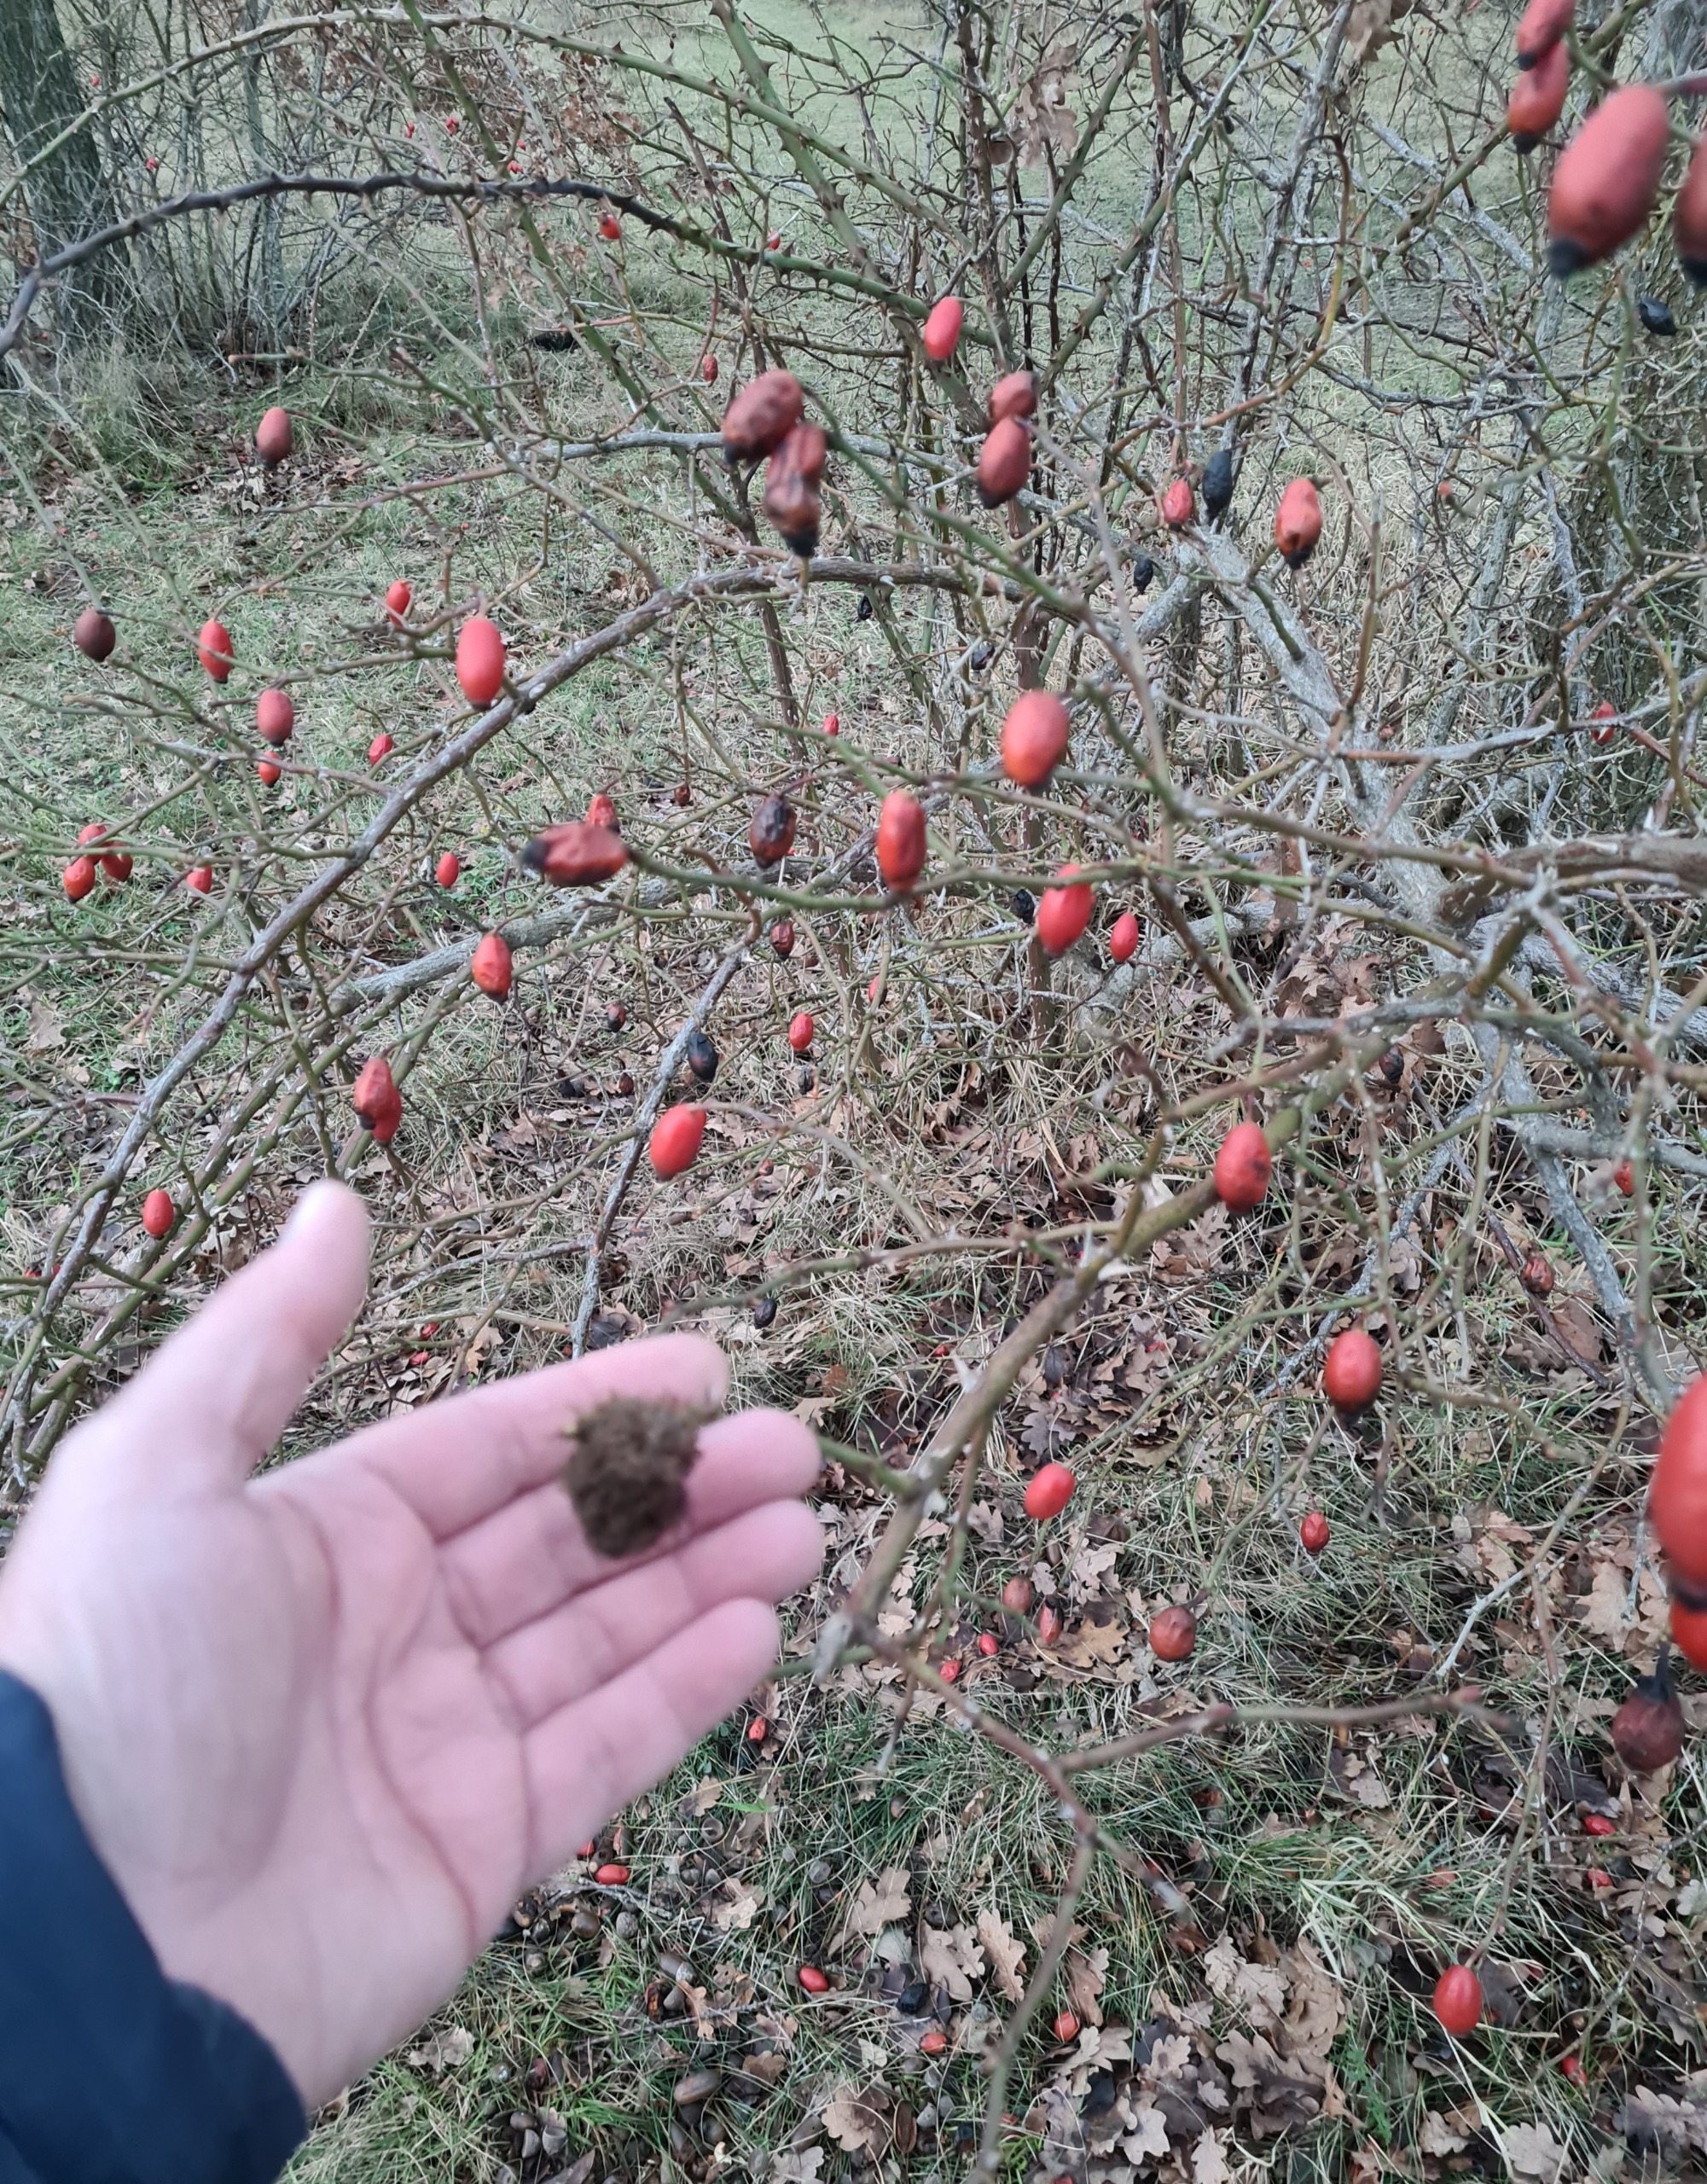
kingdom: Animalia
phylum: Arthropoda
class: Insecta
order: Hymenoptera
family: Cynipidae
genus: Diplolepis
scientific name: Diplolepis rosae
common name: Bedeguargalhveps
